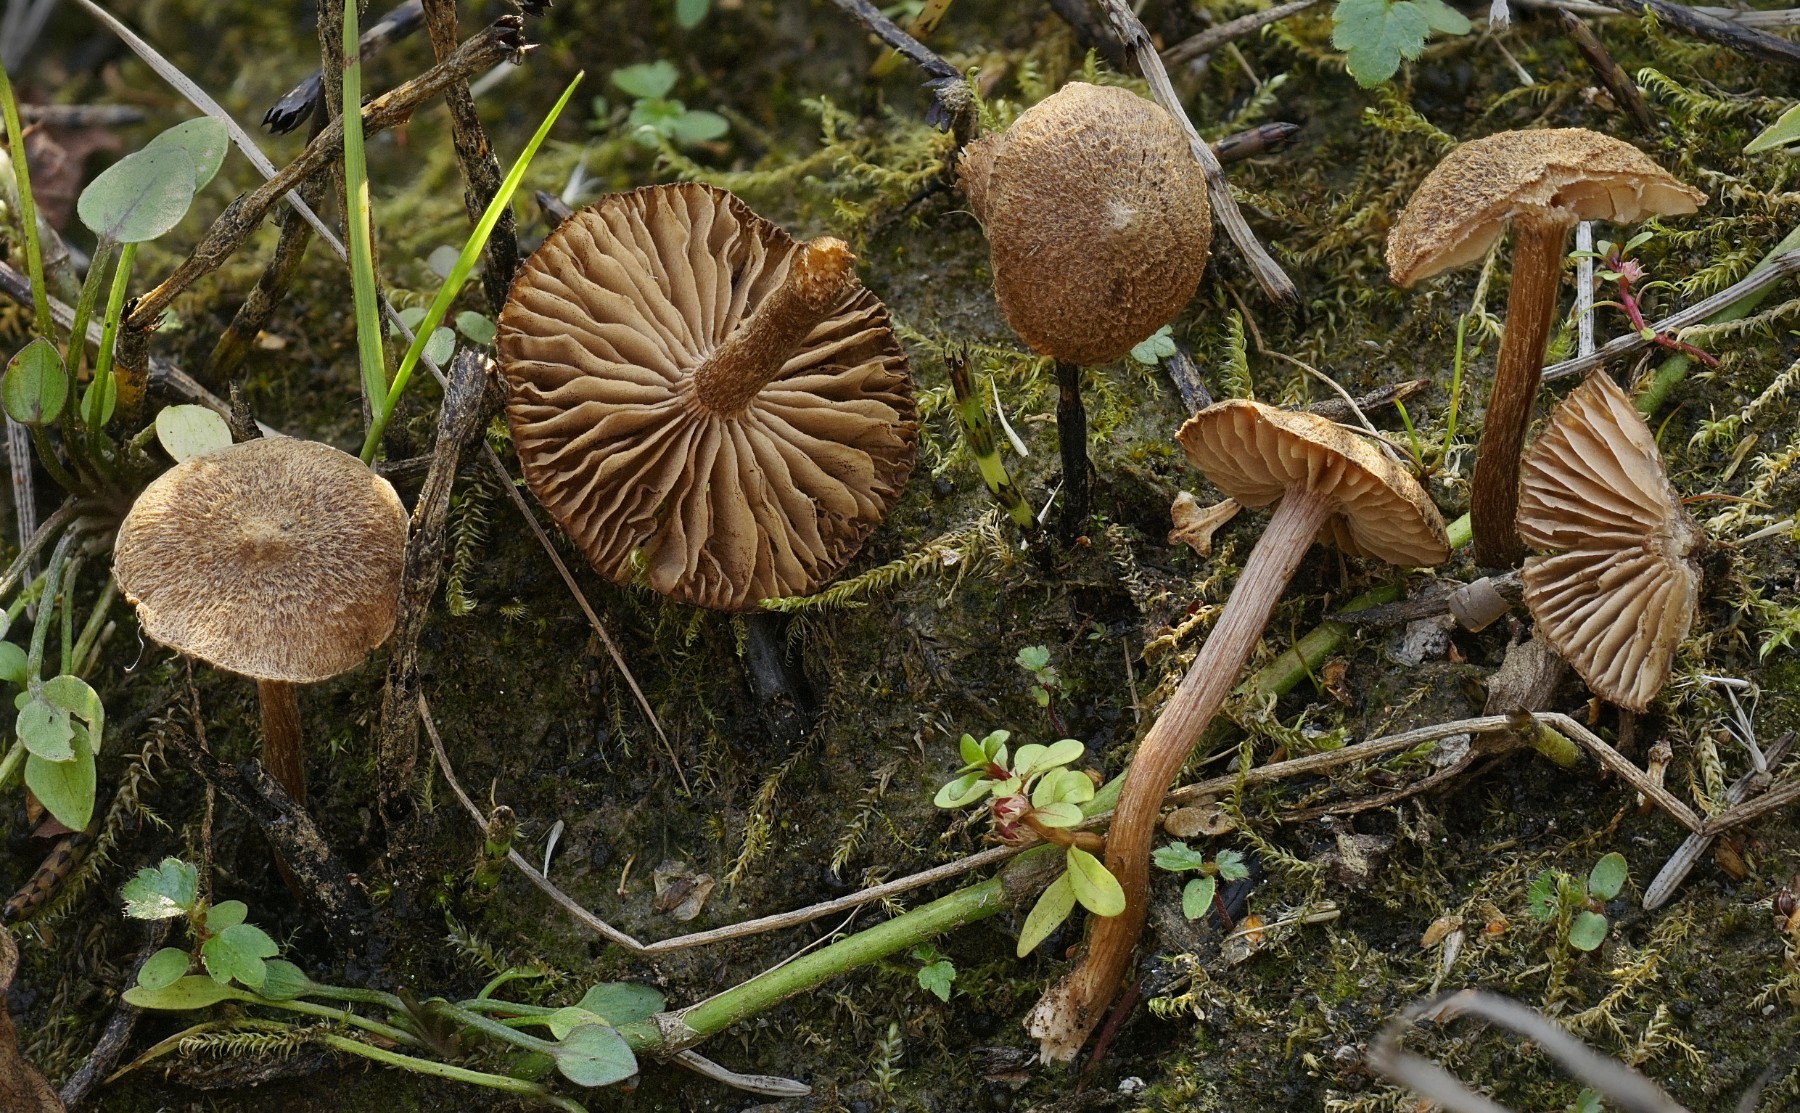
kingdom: Fungi
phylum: Basidiomycota
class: Agaricomycetes
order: Agaricales
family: Inocybaceae
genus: Inocybe
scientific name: Inocybe lacera
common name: laset trævlhat
